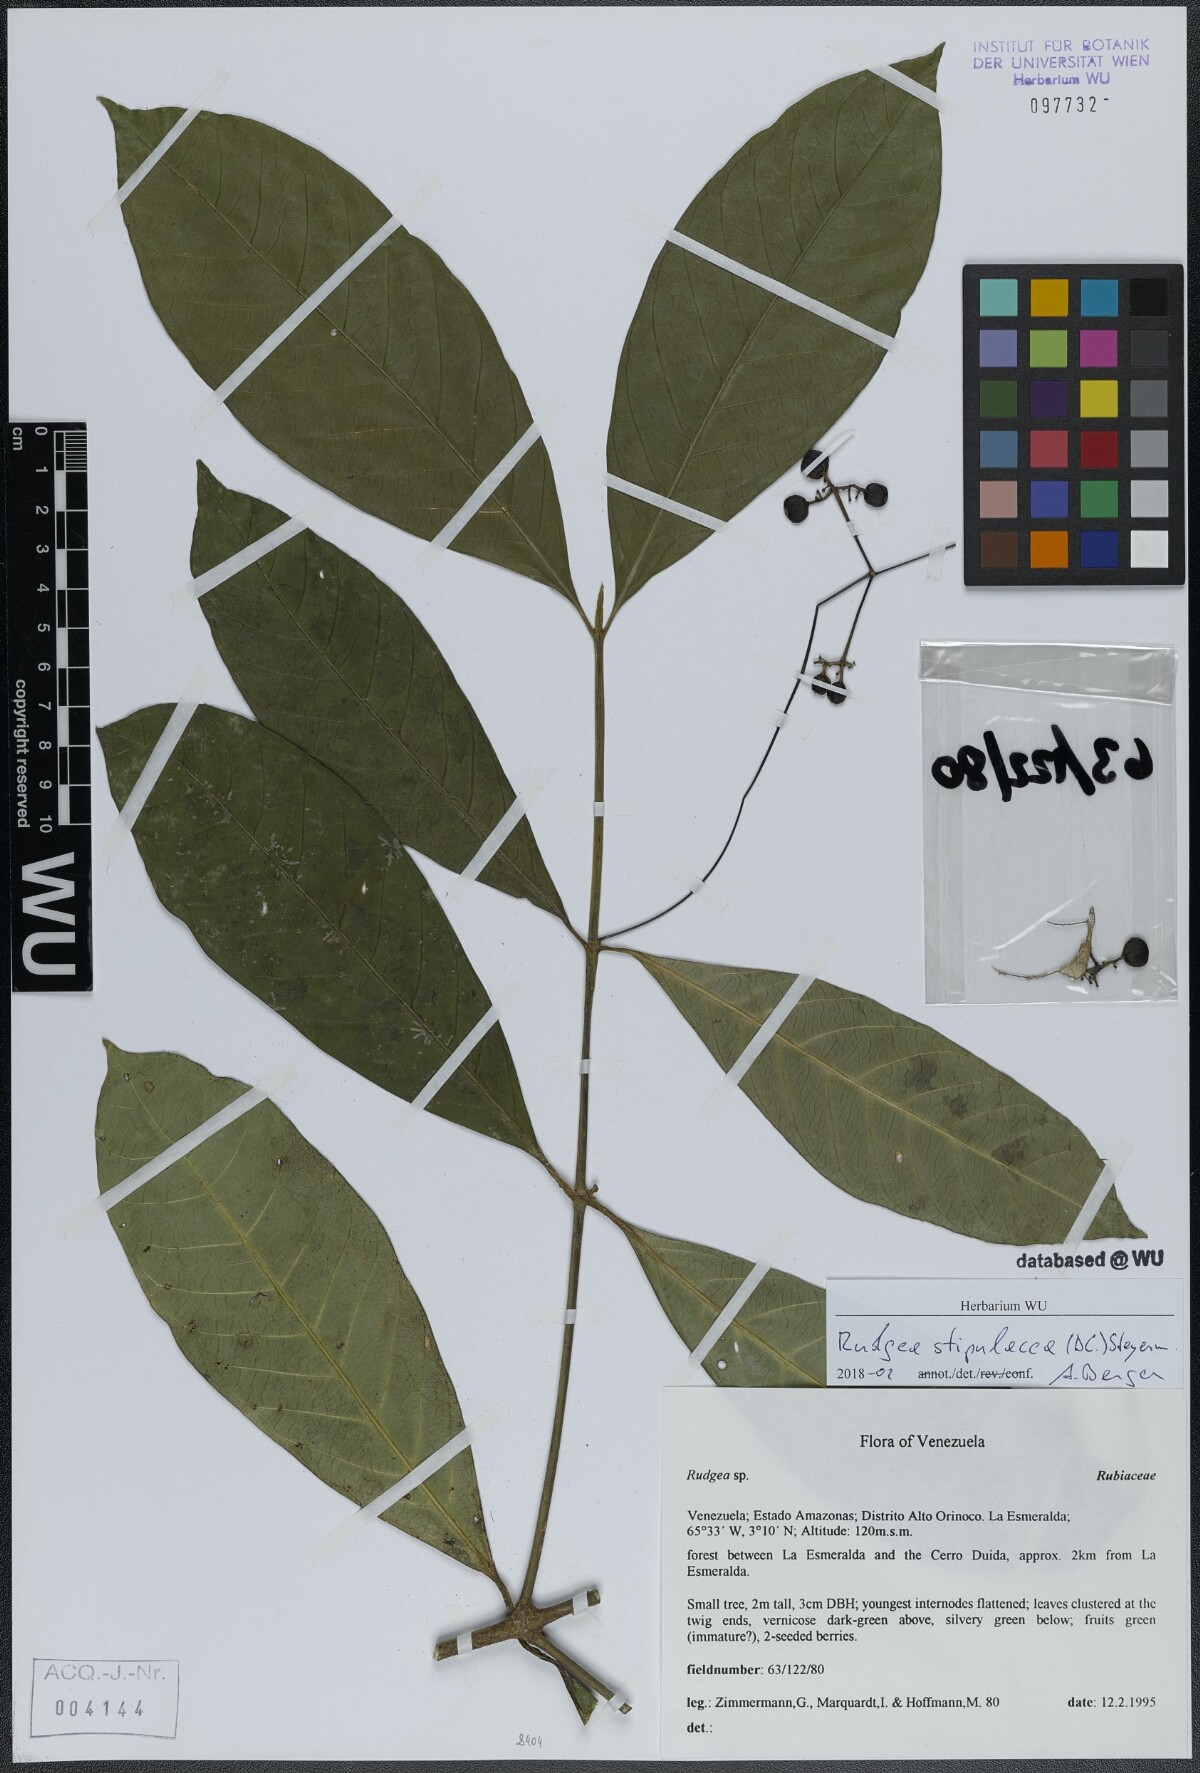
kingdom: Plantae
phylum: Tracheophyta
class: Magnoliopsida
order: Gentianales
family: Rubiaceae
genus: Rudgea
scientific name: Rudgea stipulacea
